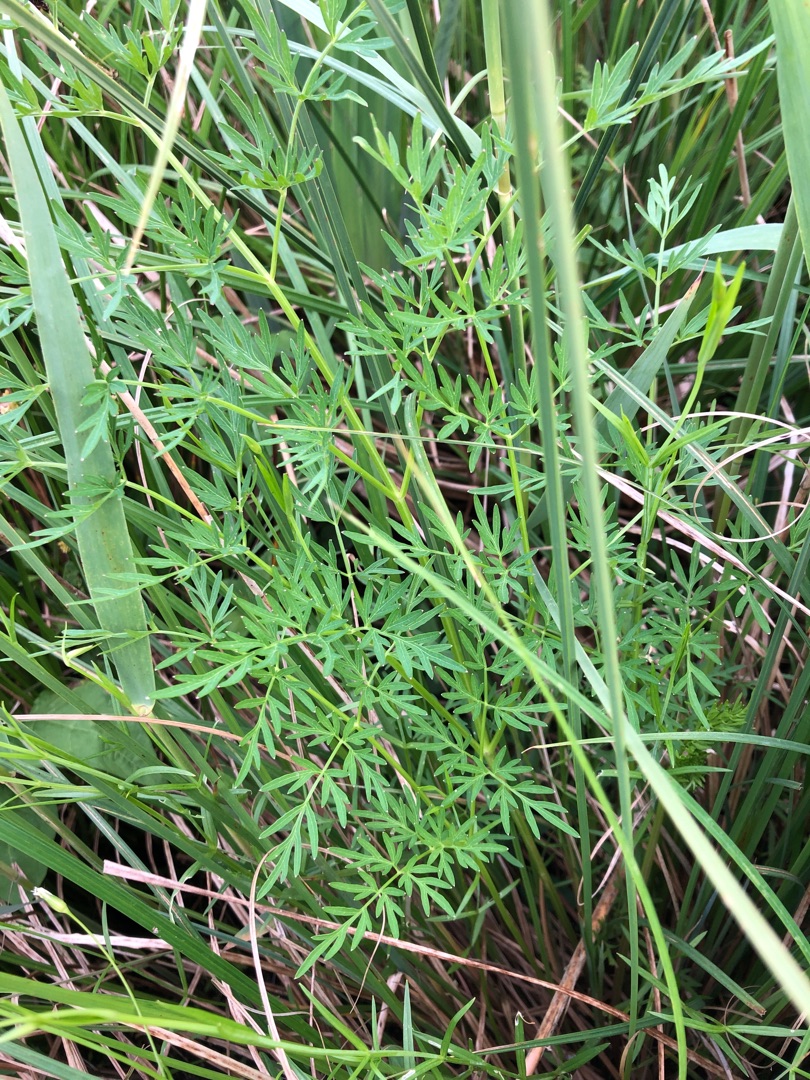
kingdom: Plantae
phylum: Tracheophyta
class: Magnoliopsida
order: Apiales
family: Apiaceae
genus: Thysselinum
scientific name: Thysselinum palustre
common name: Kær-svovlrod
